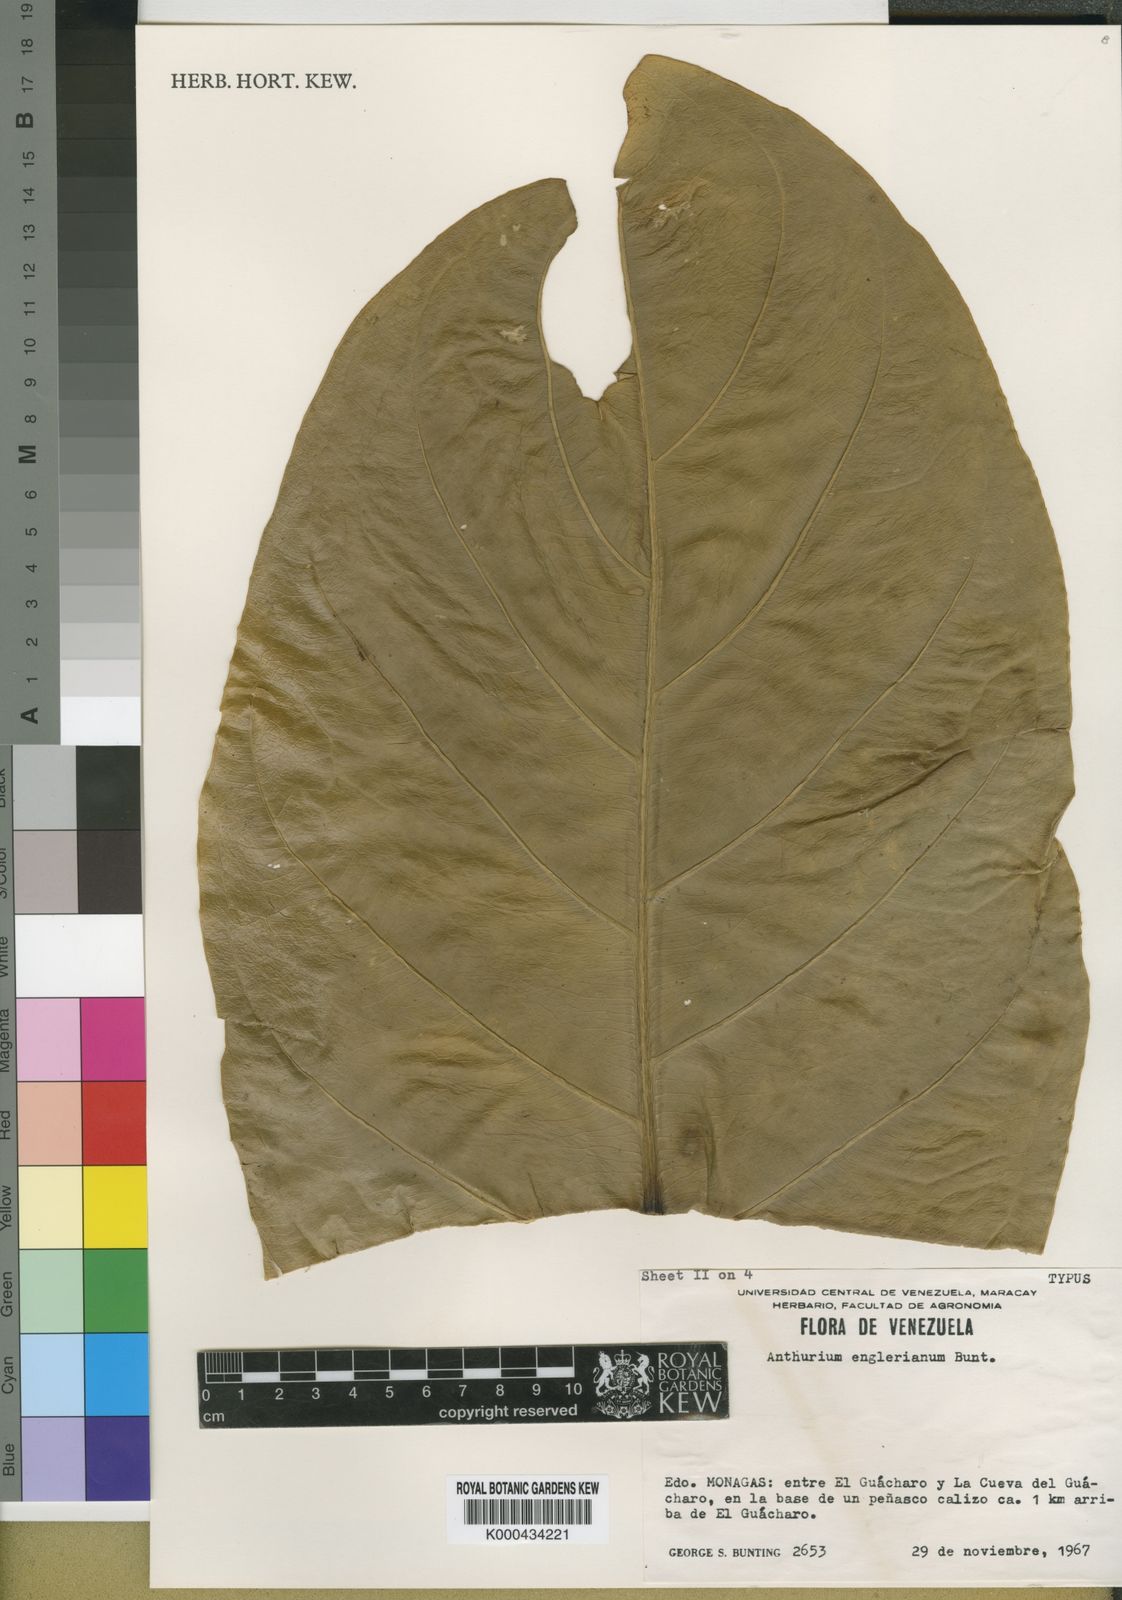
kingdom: Plantae
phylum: Tracheophyta
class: Liliopsida
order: Alismatales
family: Araceae
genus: Anthurium
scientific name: Anthurium jenmanii
